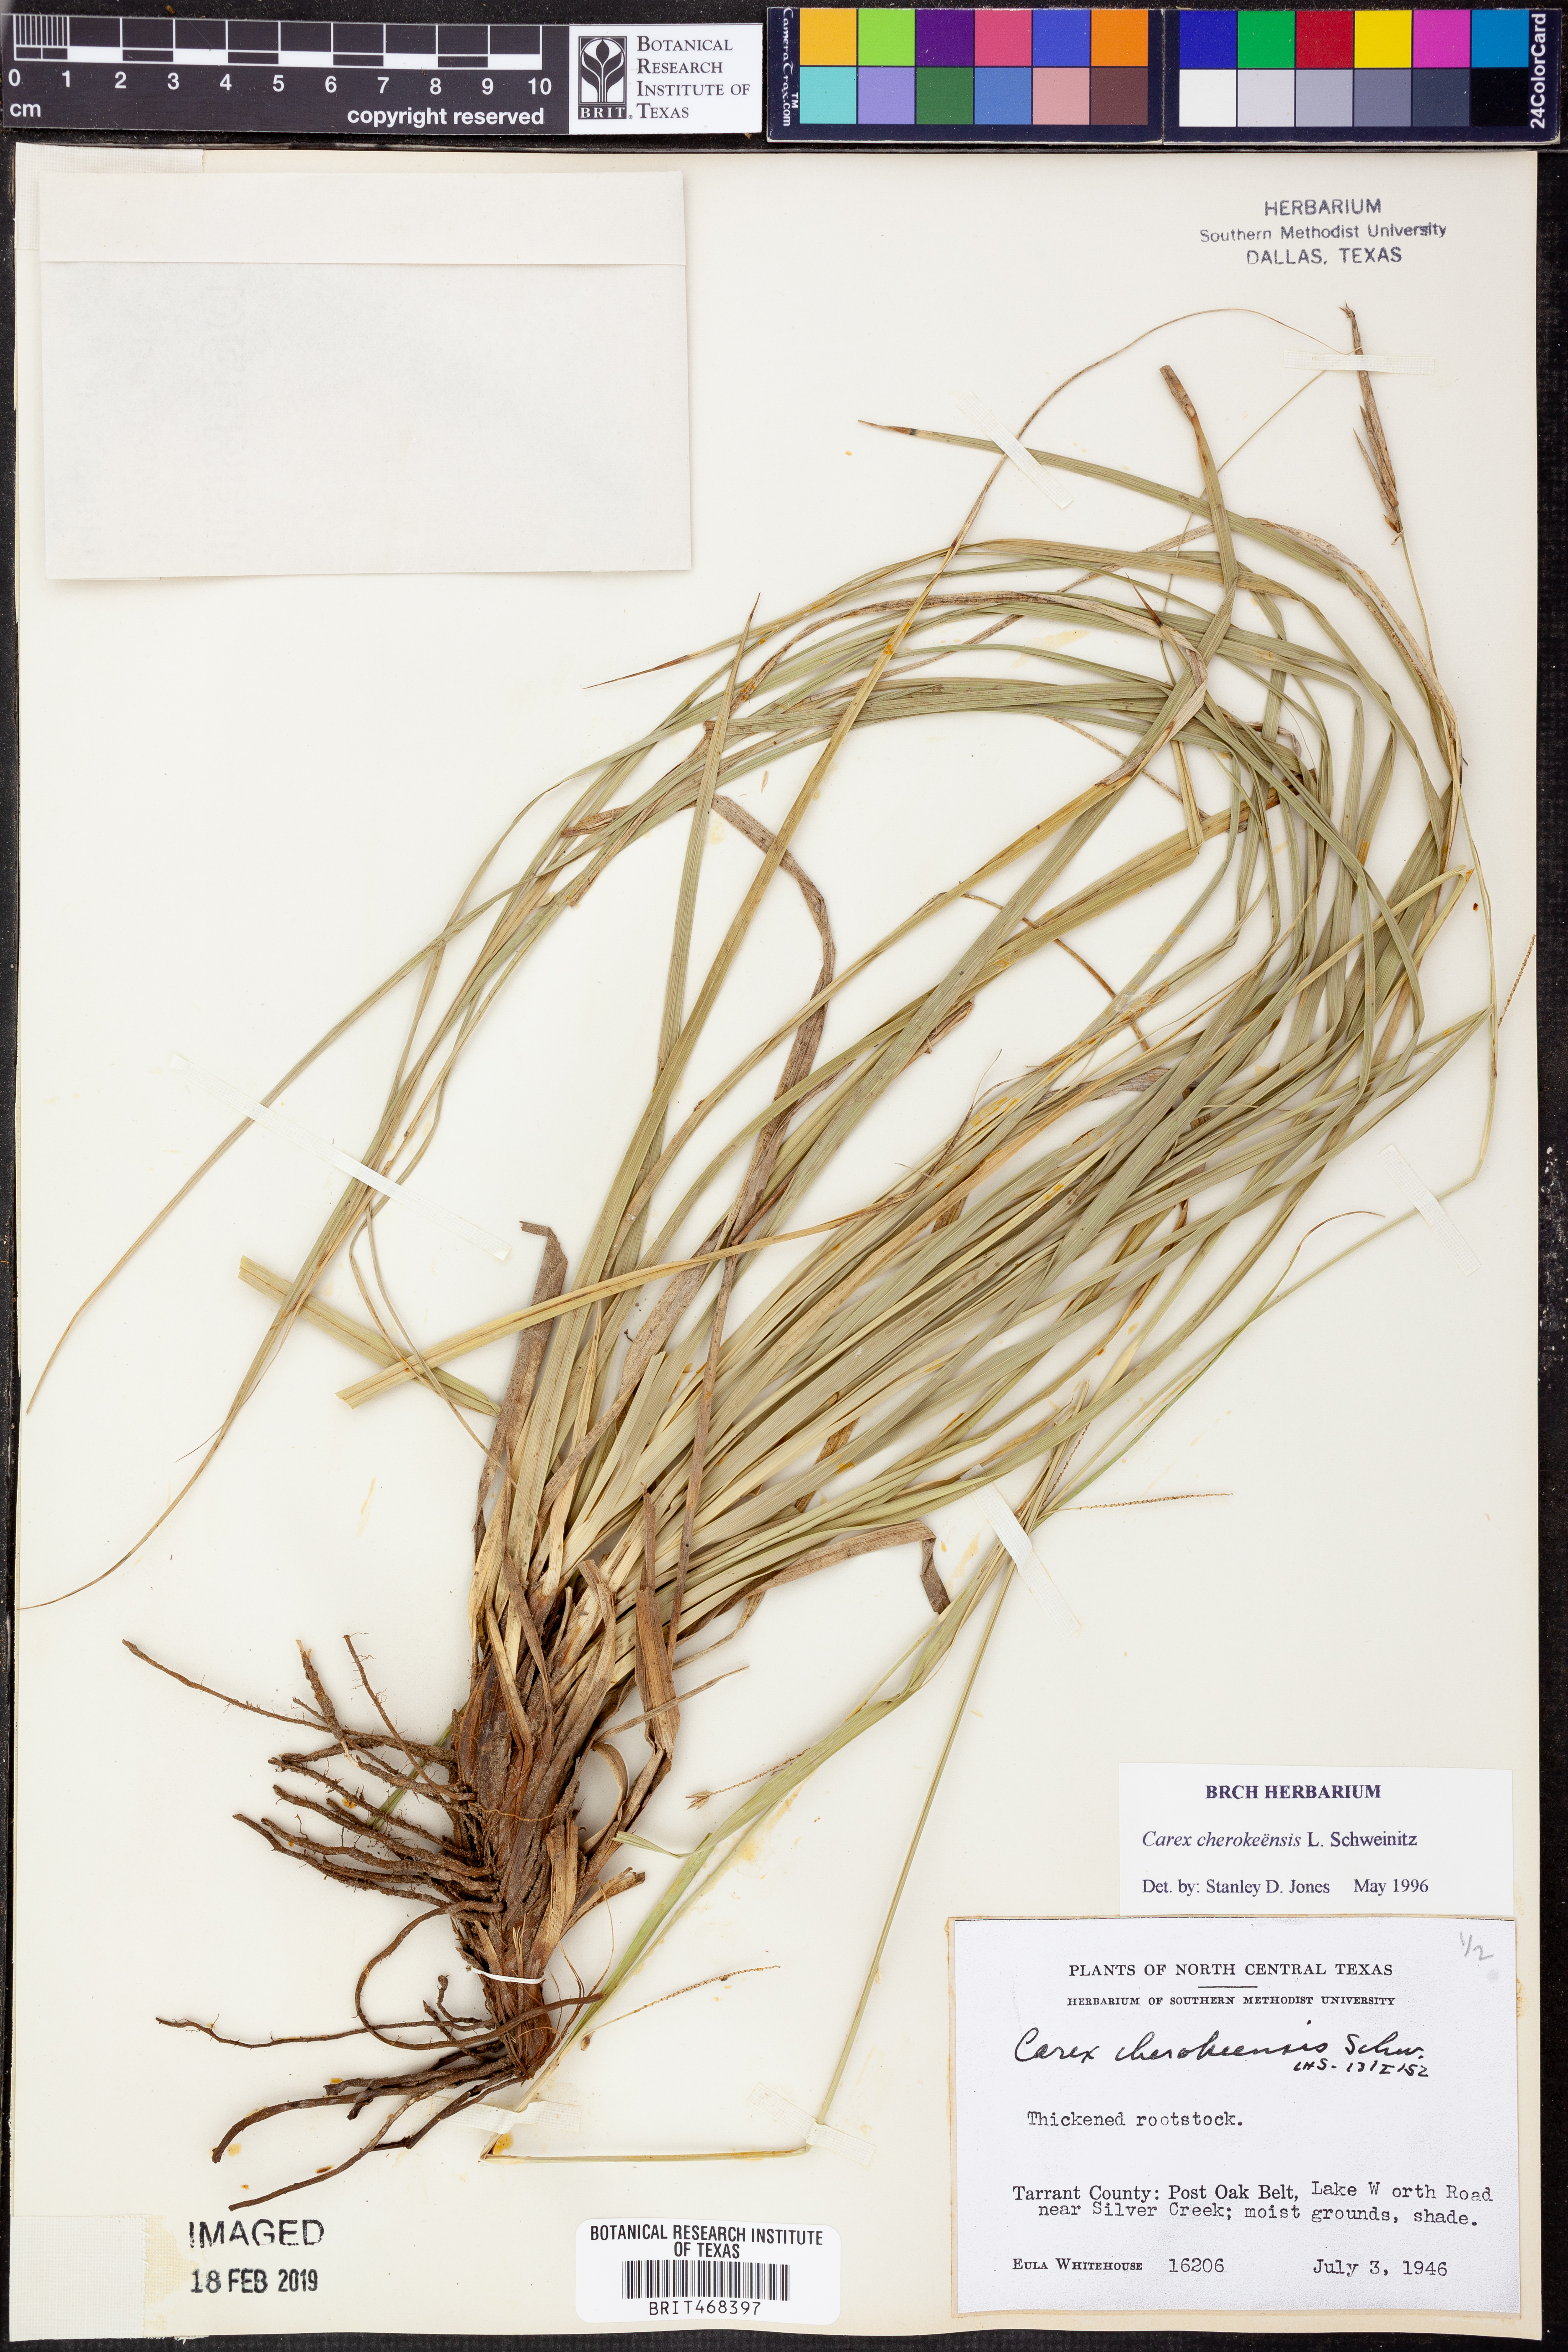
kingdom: Plantae
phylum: Tracheophyta
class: Liliopsida
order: Poales
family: Cyperaceae
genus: Carex
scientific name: Carex cherokeensis
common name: Cherokee sedge
